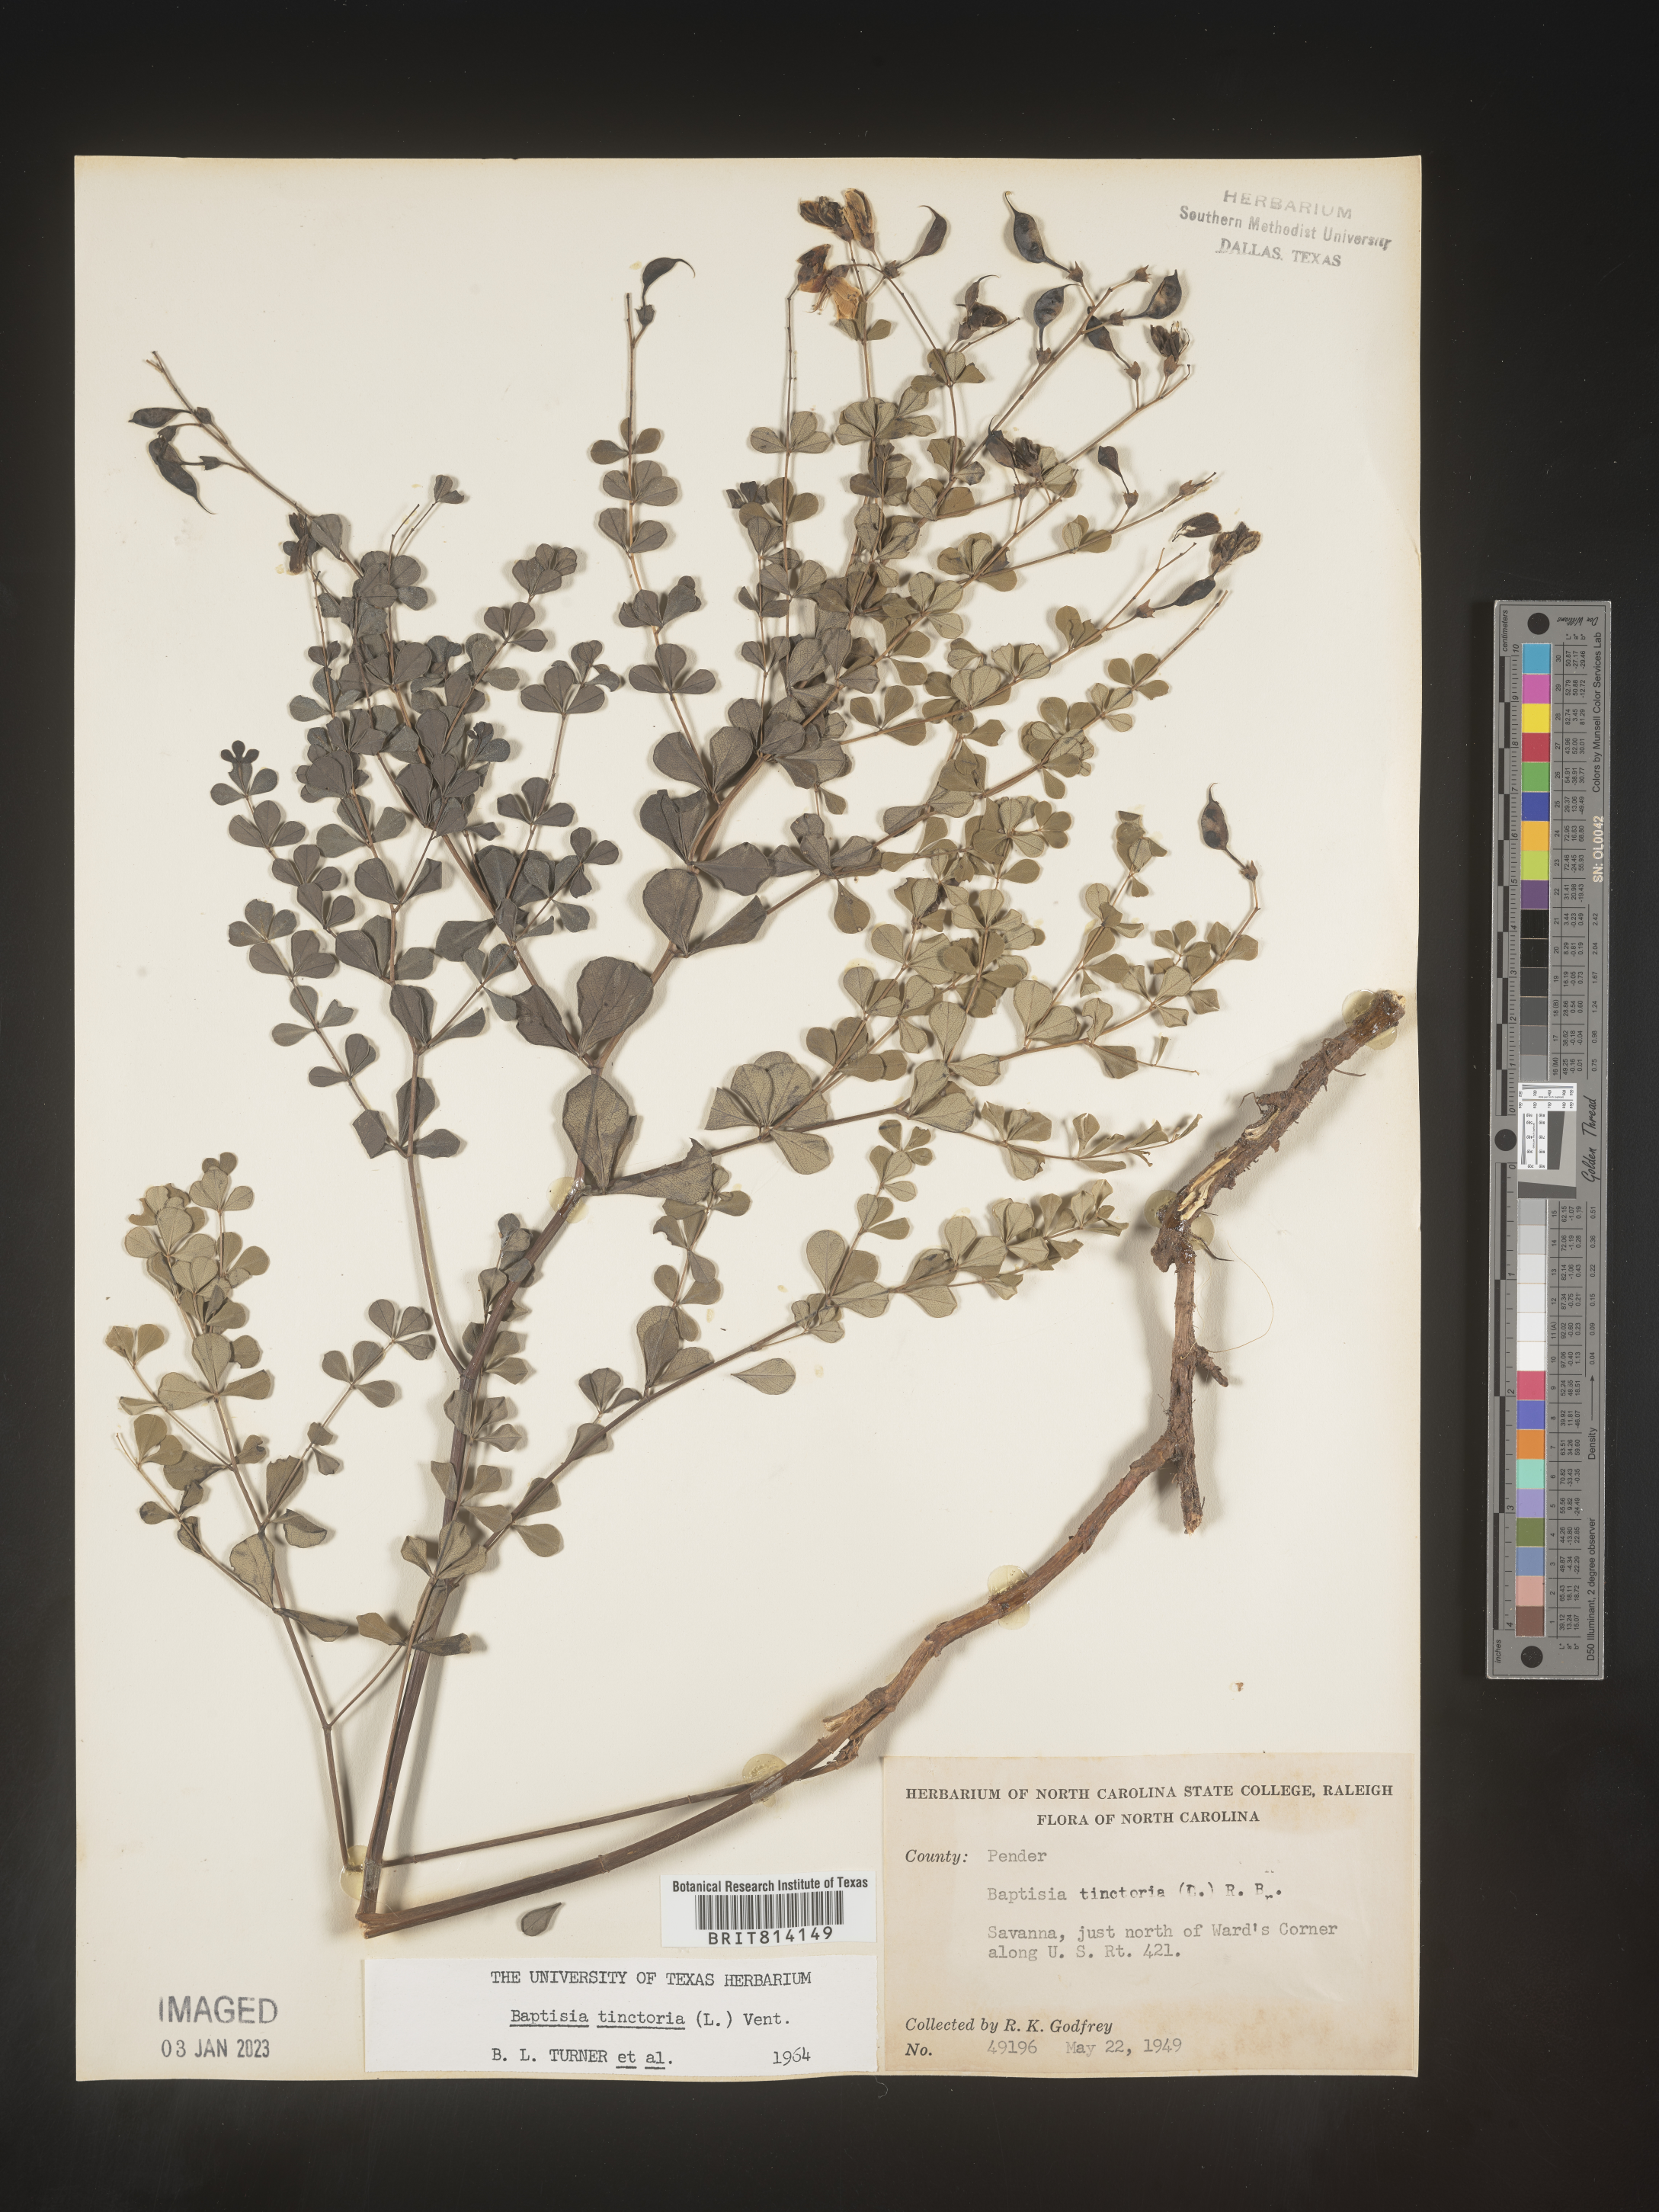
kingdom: Plantae
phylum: Tracheophyta
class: Magnoliopsida
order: Fabales
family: Fabaceae
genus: Baptisia
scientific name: Baptisia tinctoria
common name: Wild indigo
